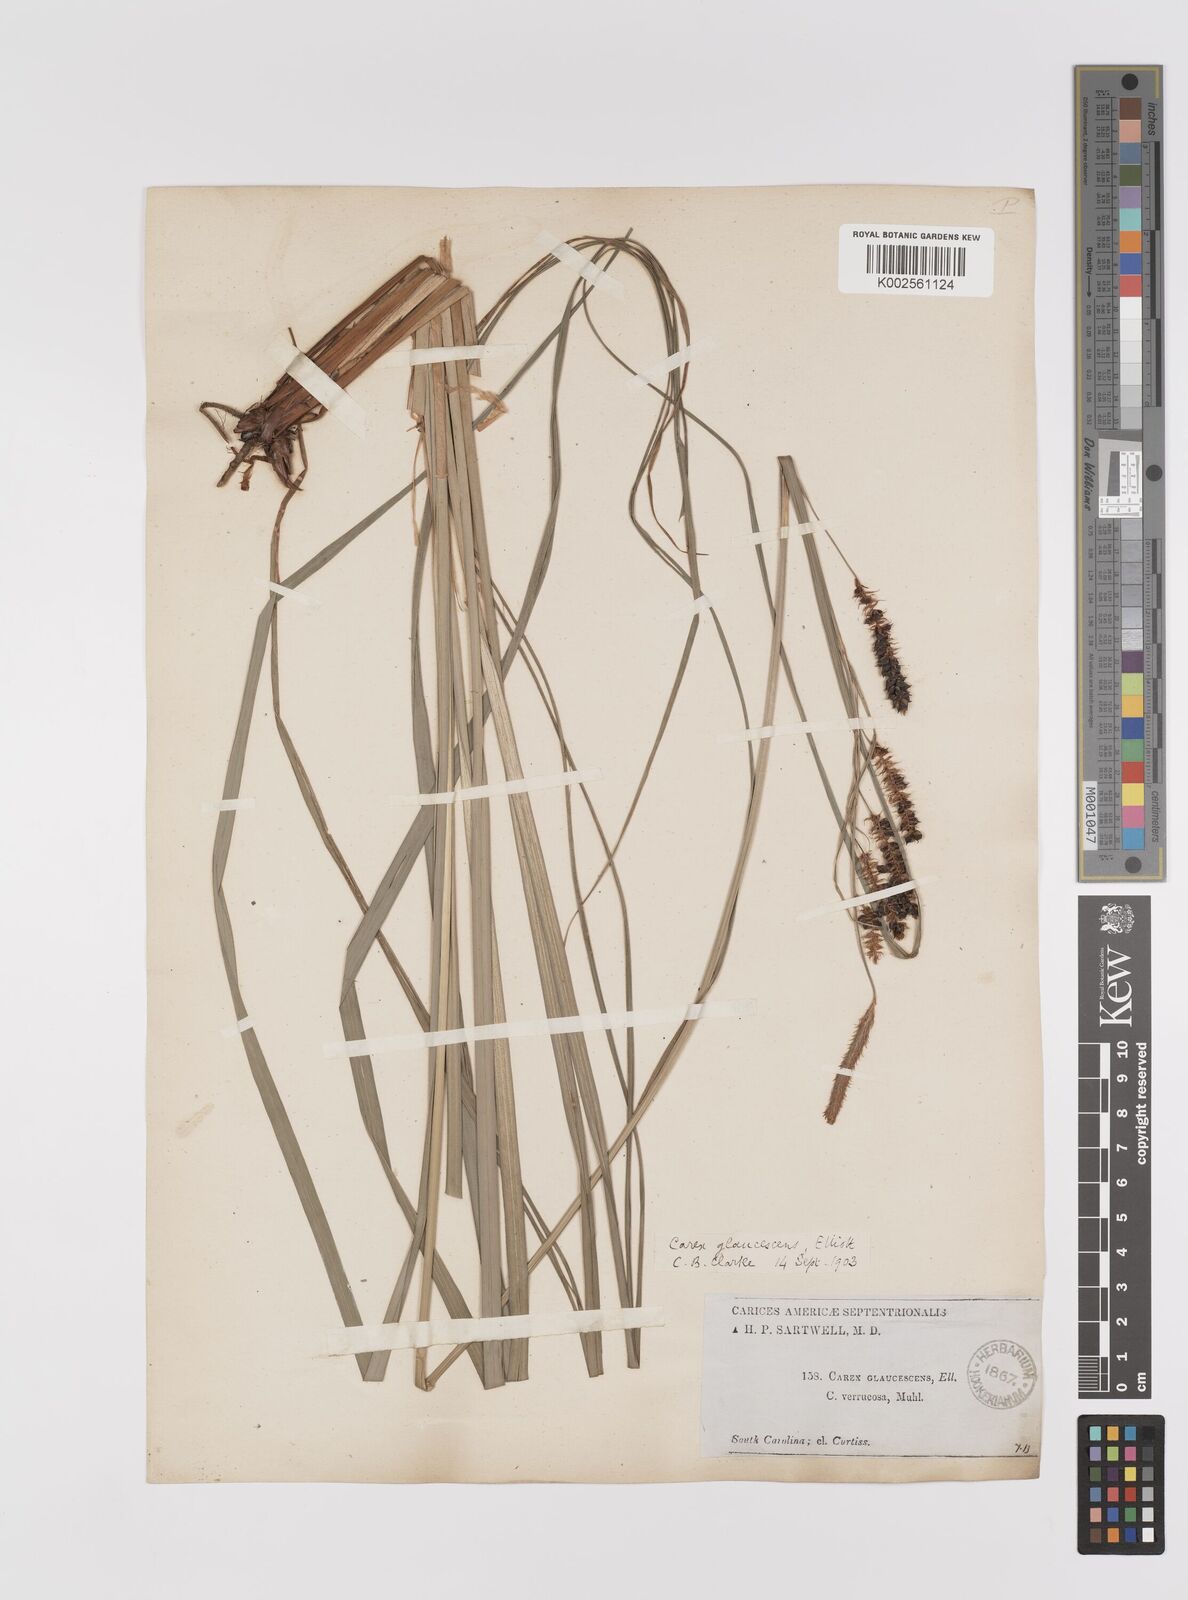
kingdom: Plantae
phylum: Tracheophyta
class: Liliopsida
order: Poales
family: Cyperaceae
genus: Carex
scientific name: Carex glaucescens
